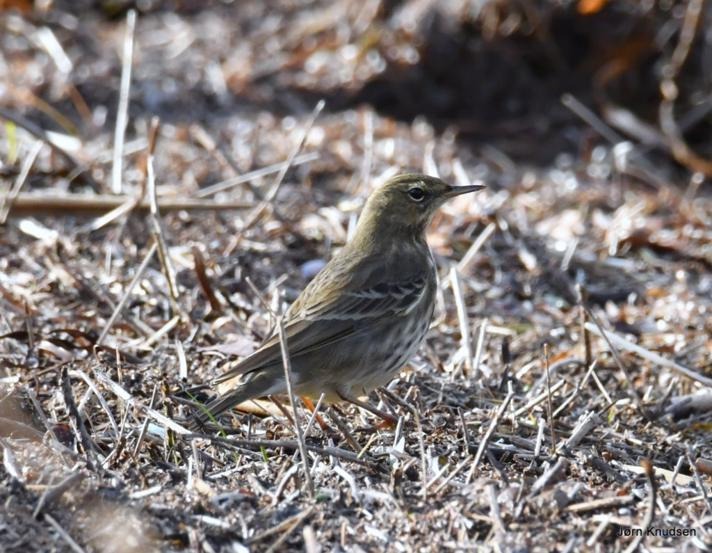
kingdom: Animalia
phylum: Chordata
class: Aves
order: Passeriformes
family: Motacillidae
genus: Anthus
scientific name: Anthus petrosus
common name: Skærpiber
